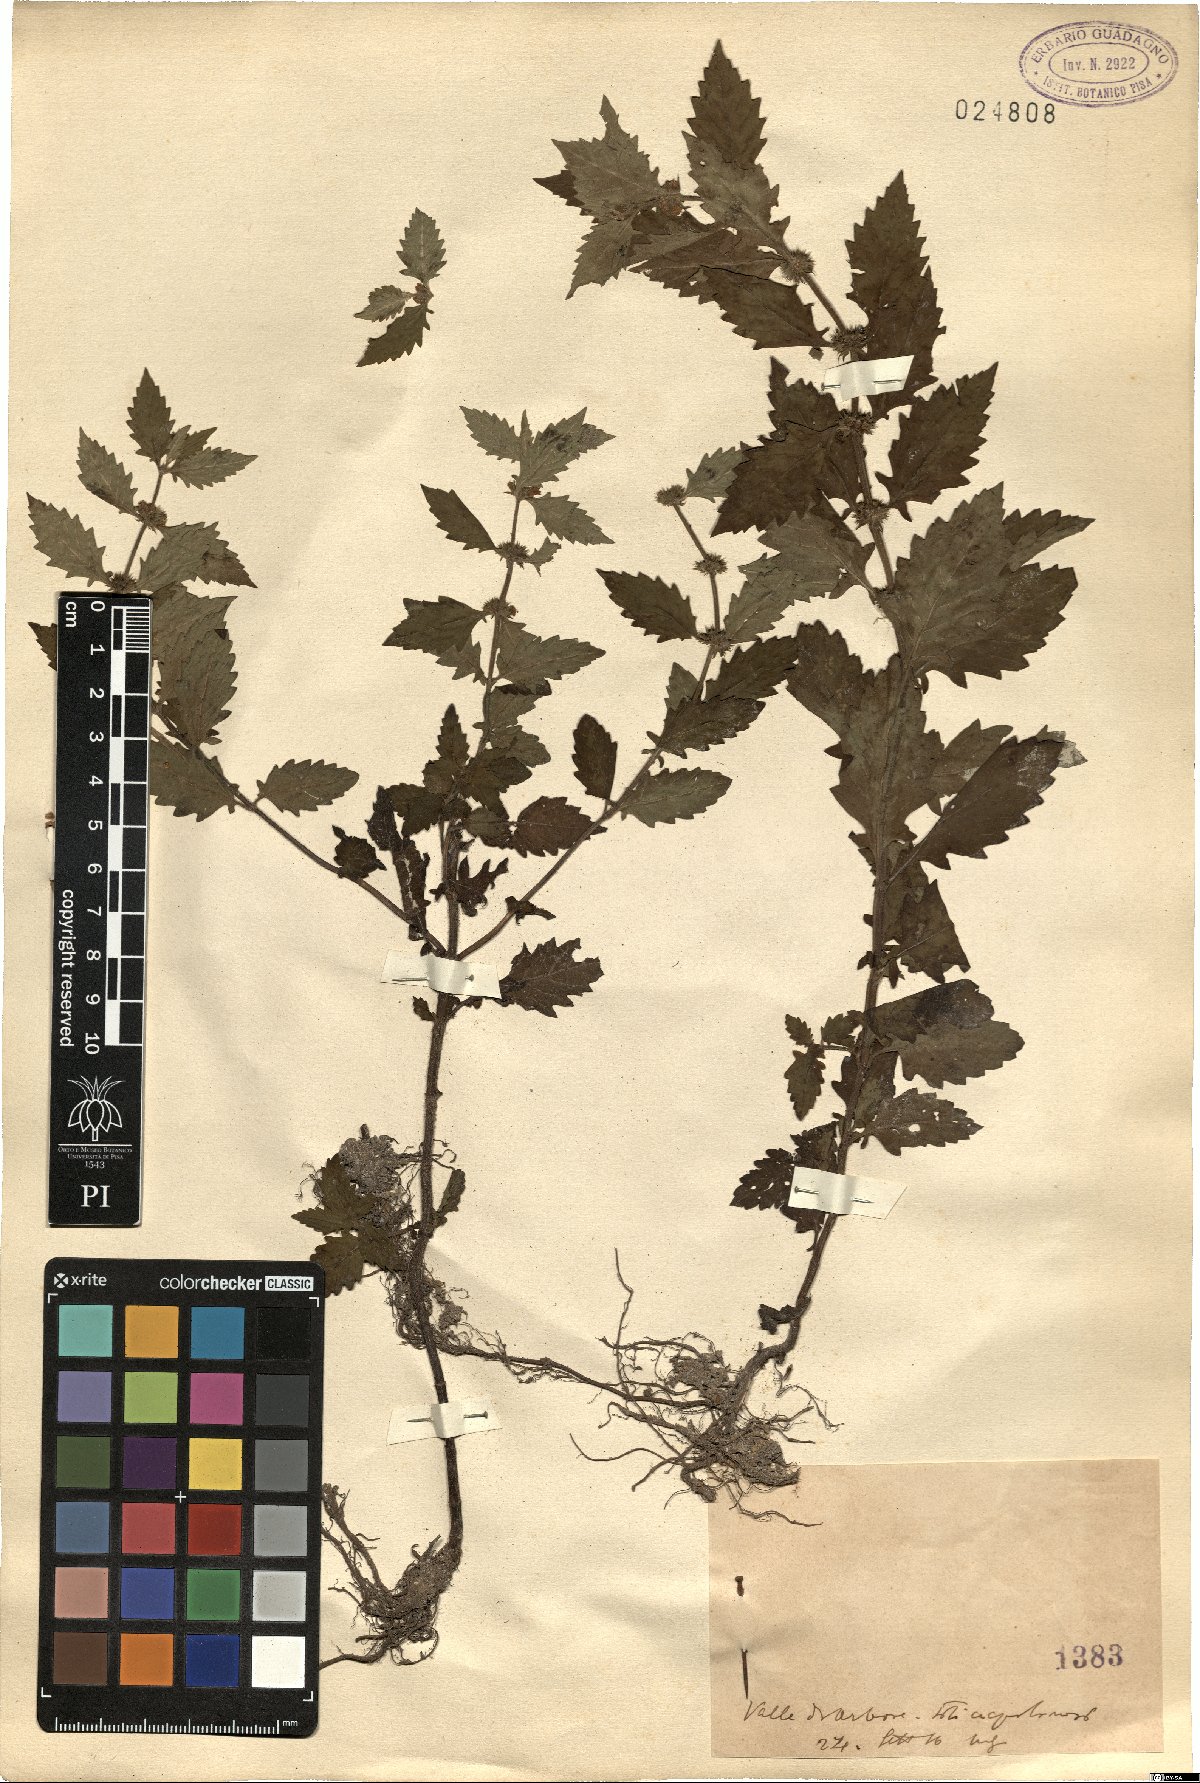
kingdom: Plantae
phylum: Tracheophyta
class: Magnoliopsida
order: Lamiales
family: Lamiaceae
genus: Leonurus
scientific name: Leonurus
